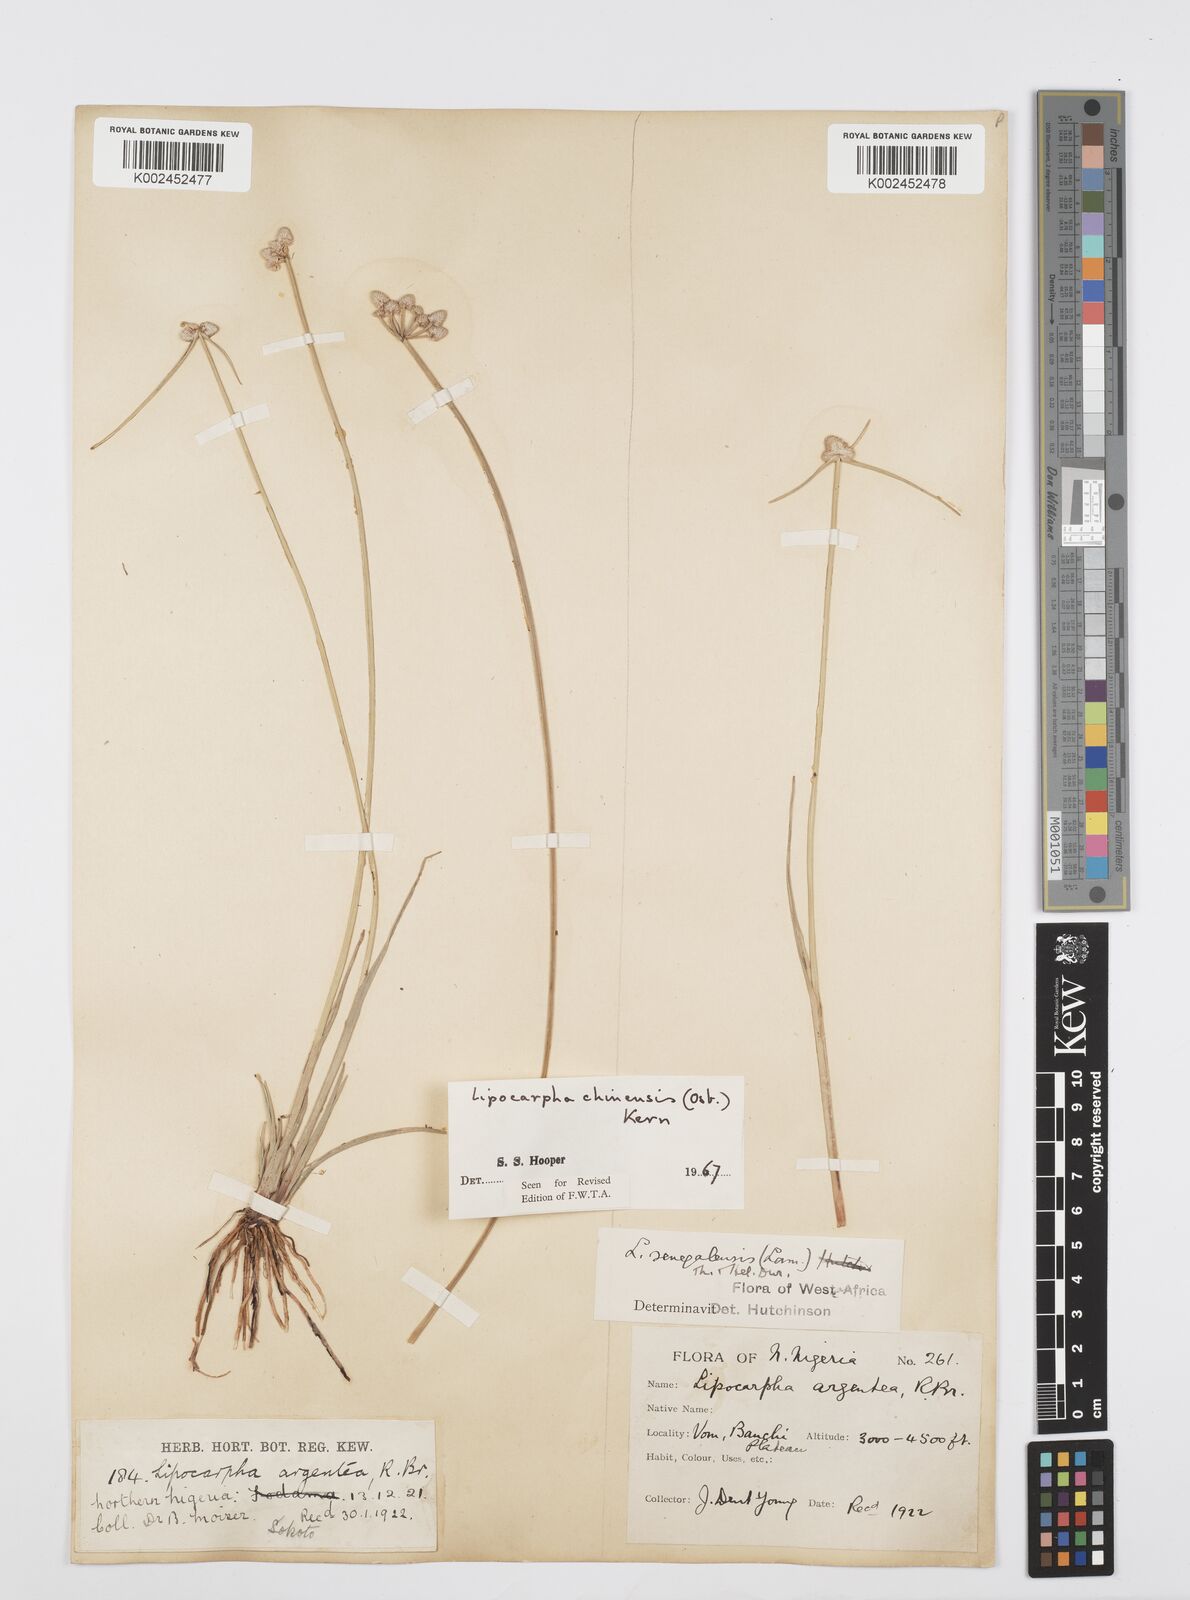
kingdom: Plantae
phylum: Tracheophyta
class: Liliopsida
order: Poales
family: Cyperaceae
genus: Cyperus
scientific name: Cyperus albescens
